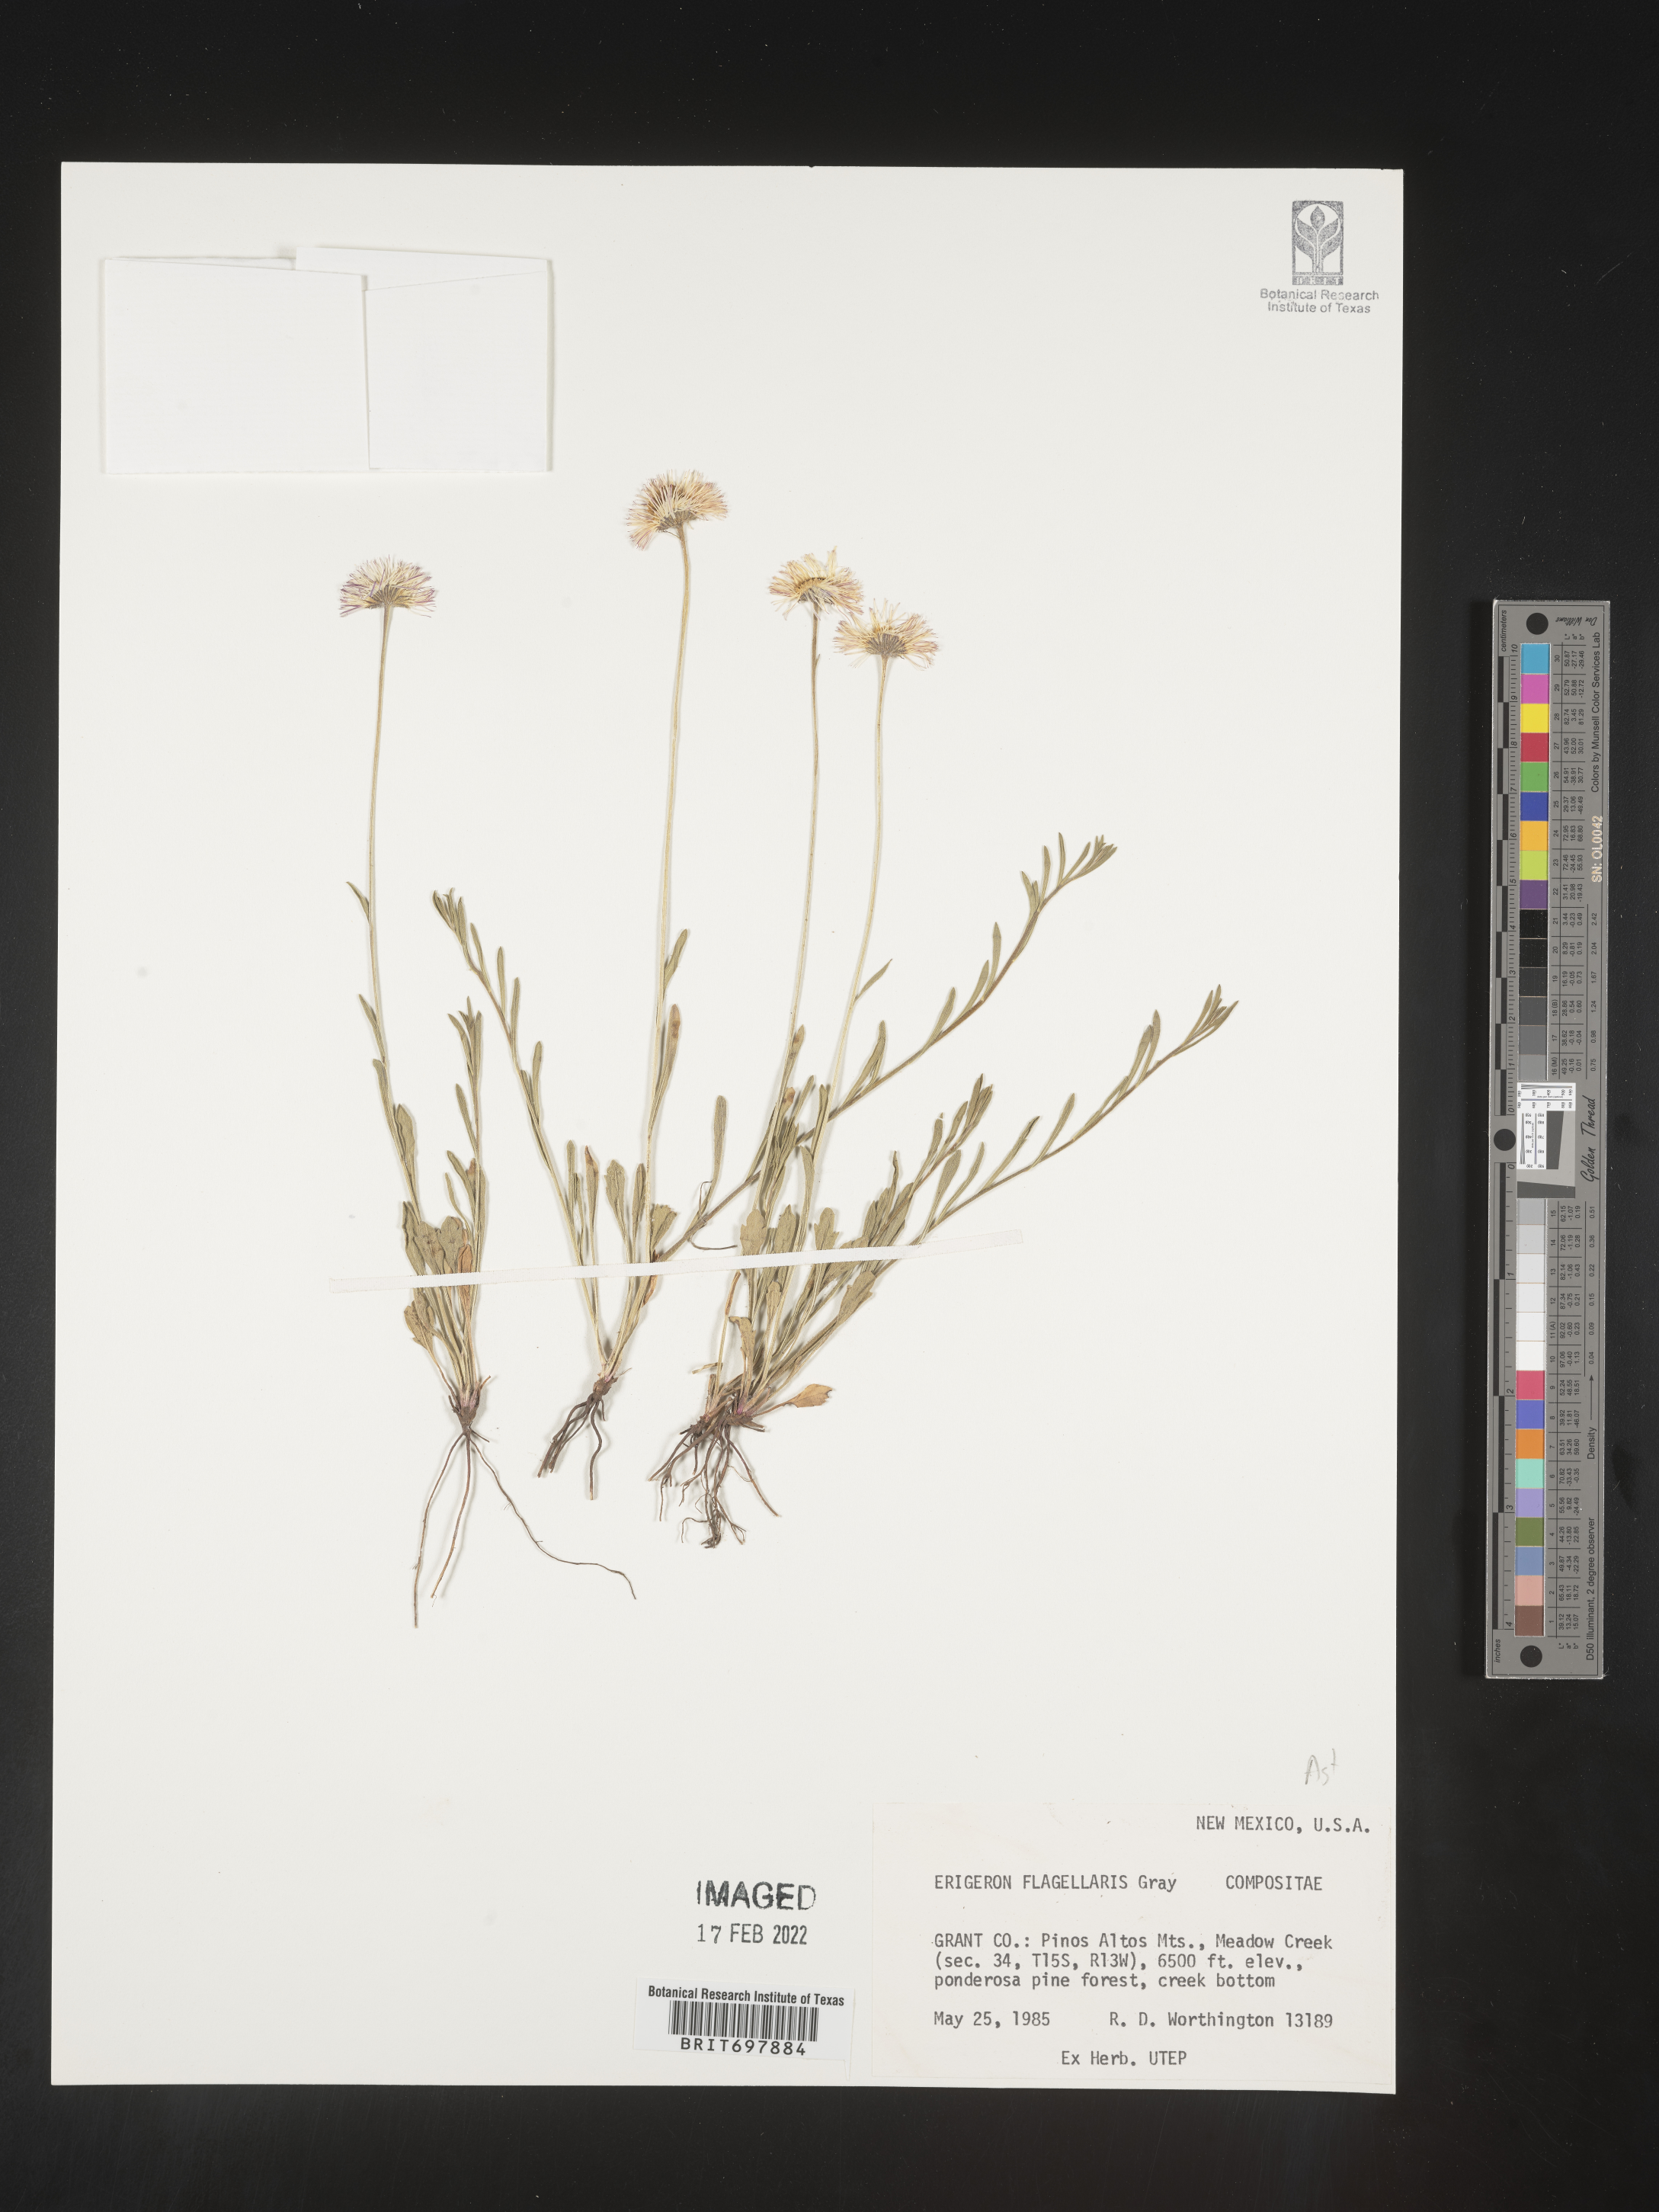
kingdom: Plantae
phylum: Tracheophyta
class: Magnoliopsida
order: Asterales
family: Asteraceae
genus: Erigeron
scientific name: Erigeron flagellaris
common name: Running fleabane
